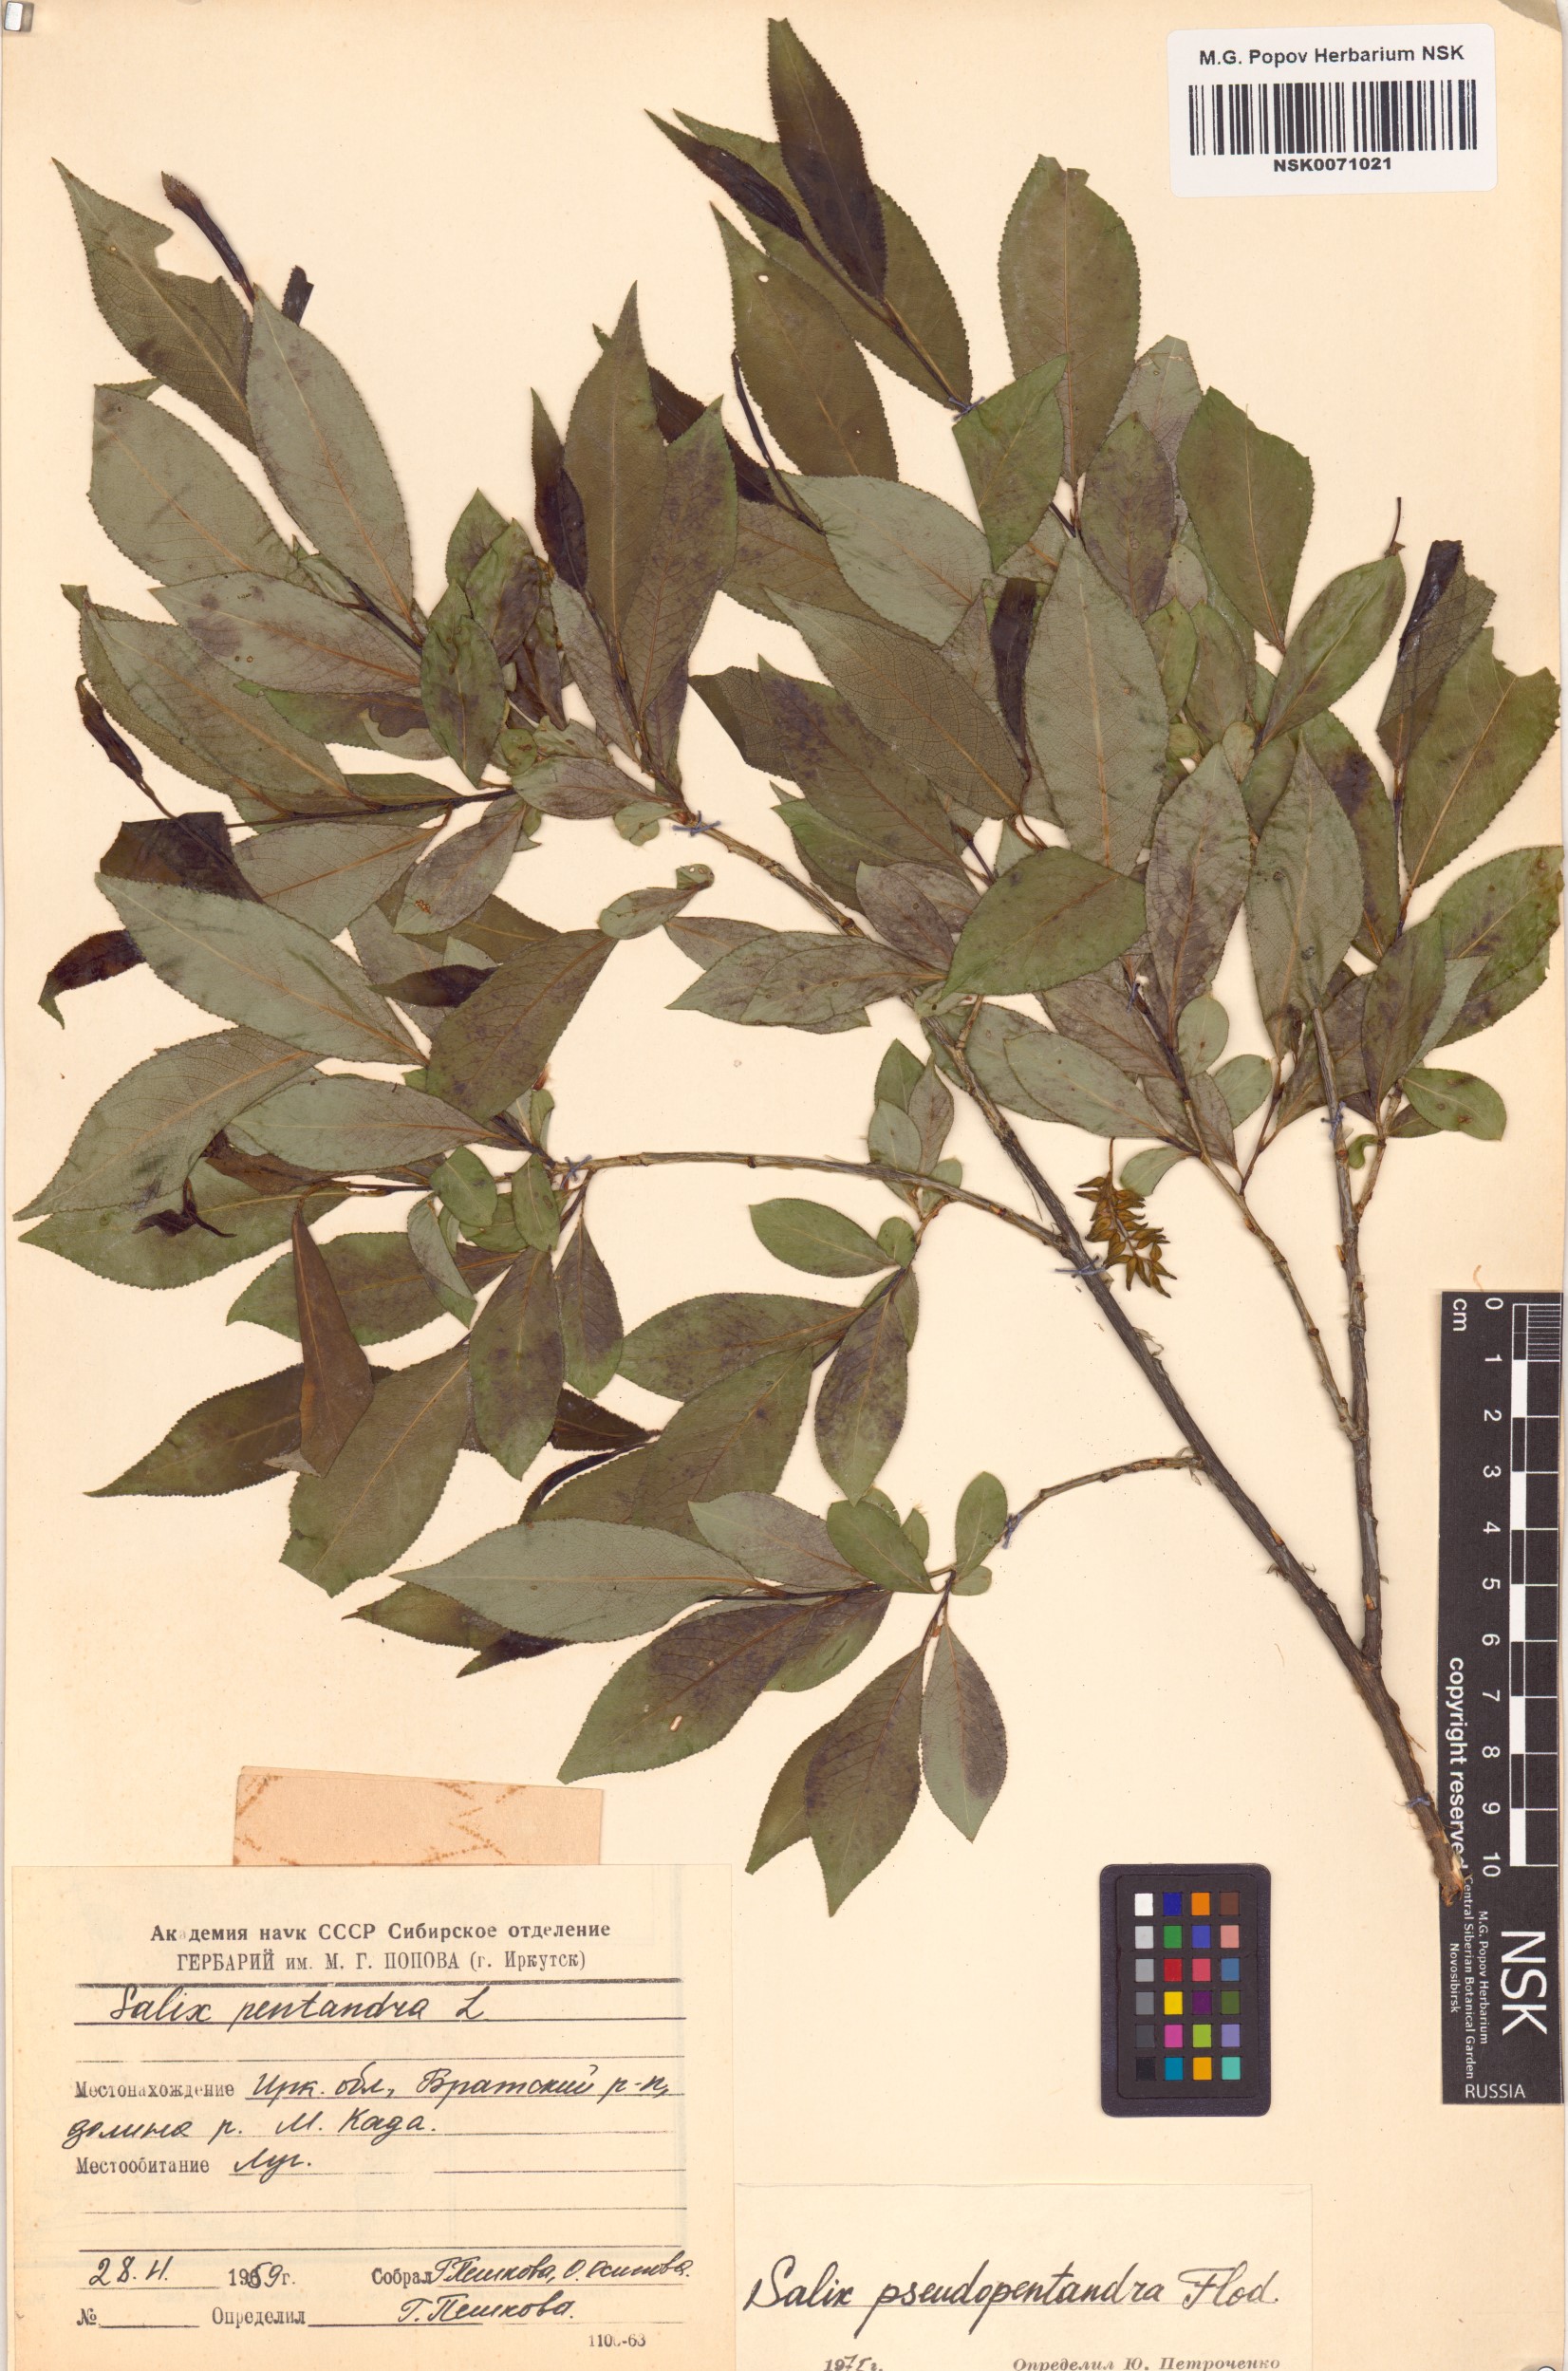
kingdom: Plantae
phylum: Tracheophyta
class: Magnoliopsida
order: Malpighiales
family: Salicaceae
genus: Salix
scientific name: Salix pseudopentandra
